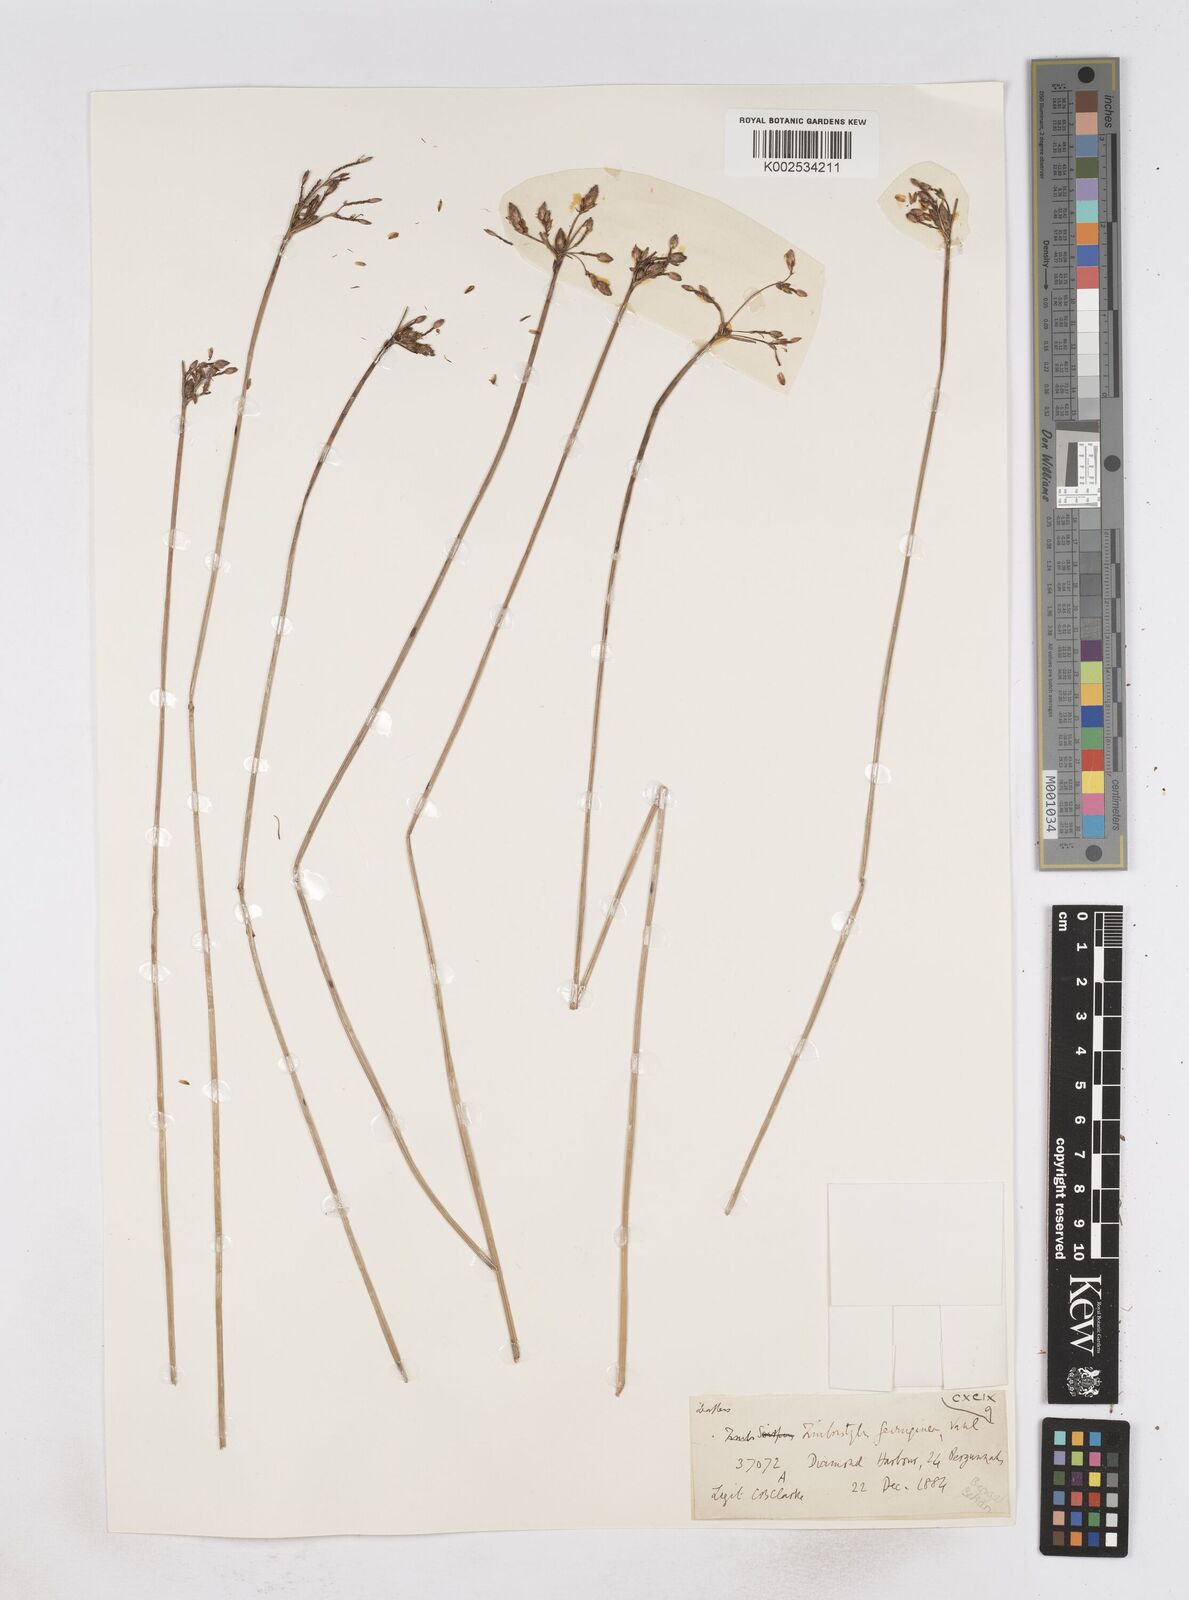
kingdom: Plantae
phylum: Tracheophyta
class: Liliopsida
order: Poales
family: Cyperaceae
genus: Fimbristylis
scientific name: Fimbristylis ferruginea
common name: West indian fimbry
